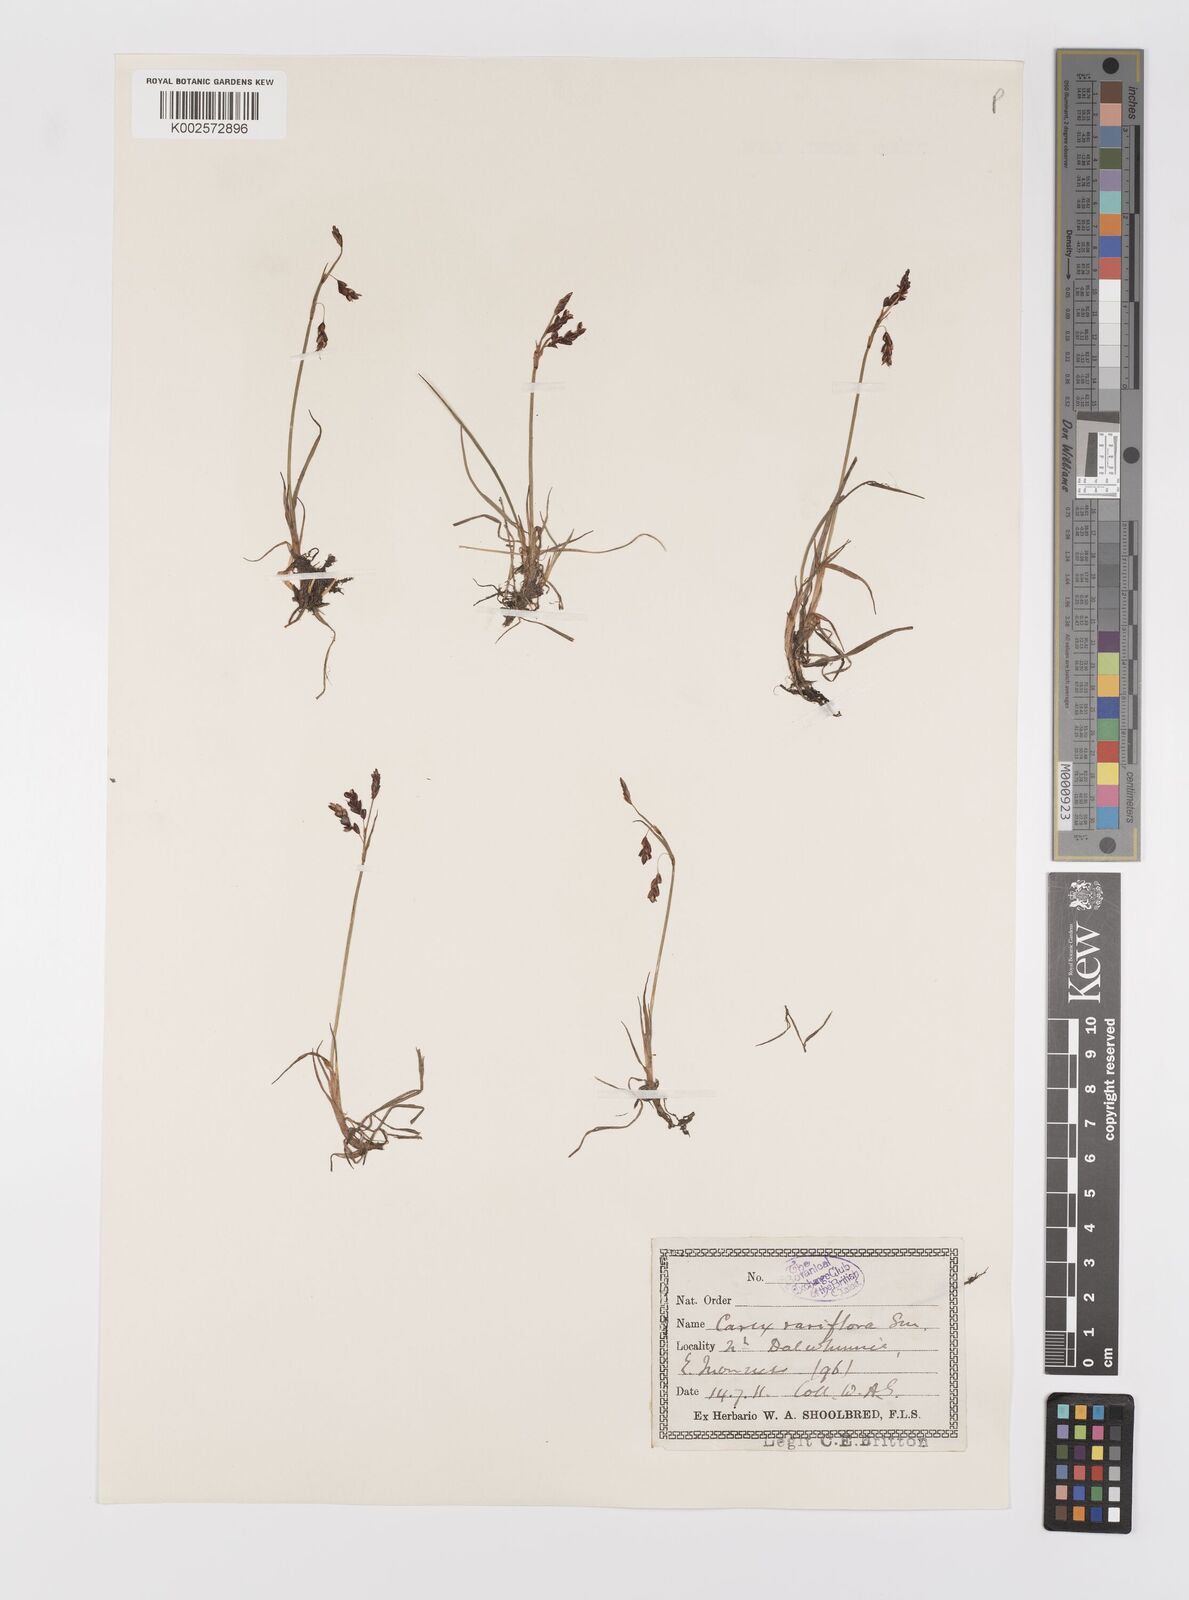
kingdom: Plantae
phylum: Tracheophyta
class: Liliopsida
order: Poales
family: Cyperaceae
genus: Carex
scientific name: Carex rariflora
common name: Loose-flowered alpine sedge
